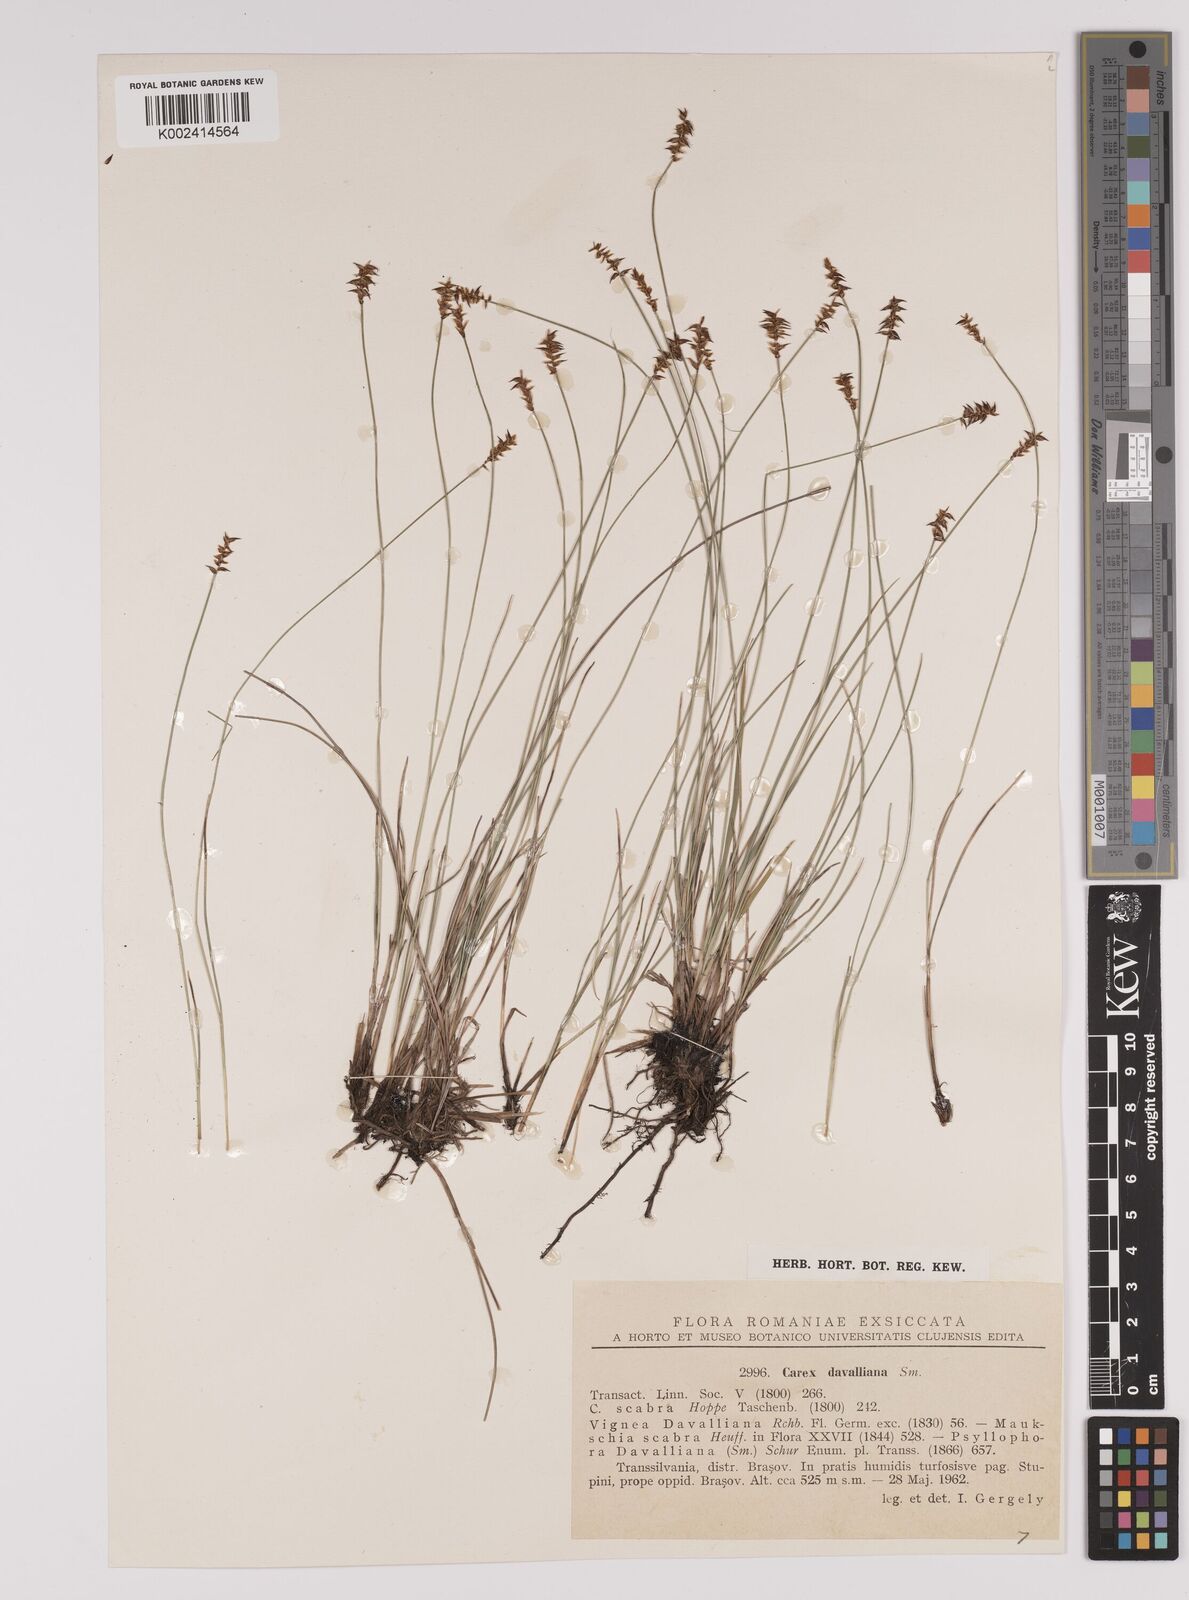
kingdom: Plantae
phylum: Tracheophyta
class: Liliopsida
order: Poales
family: Cyperaceae
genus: Carex
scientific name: Carex davalliana
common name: Davall's sedge
